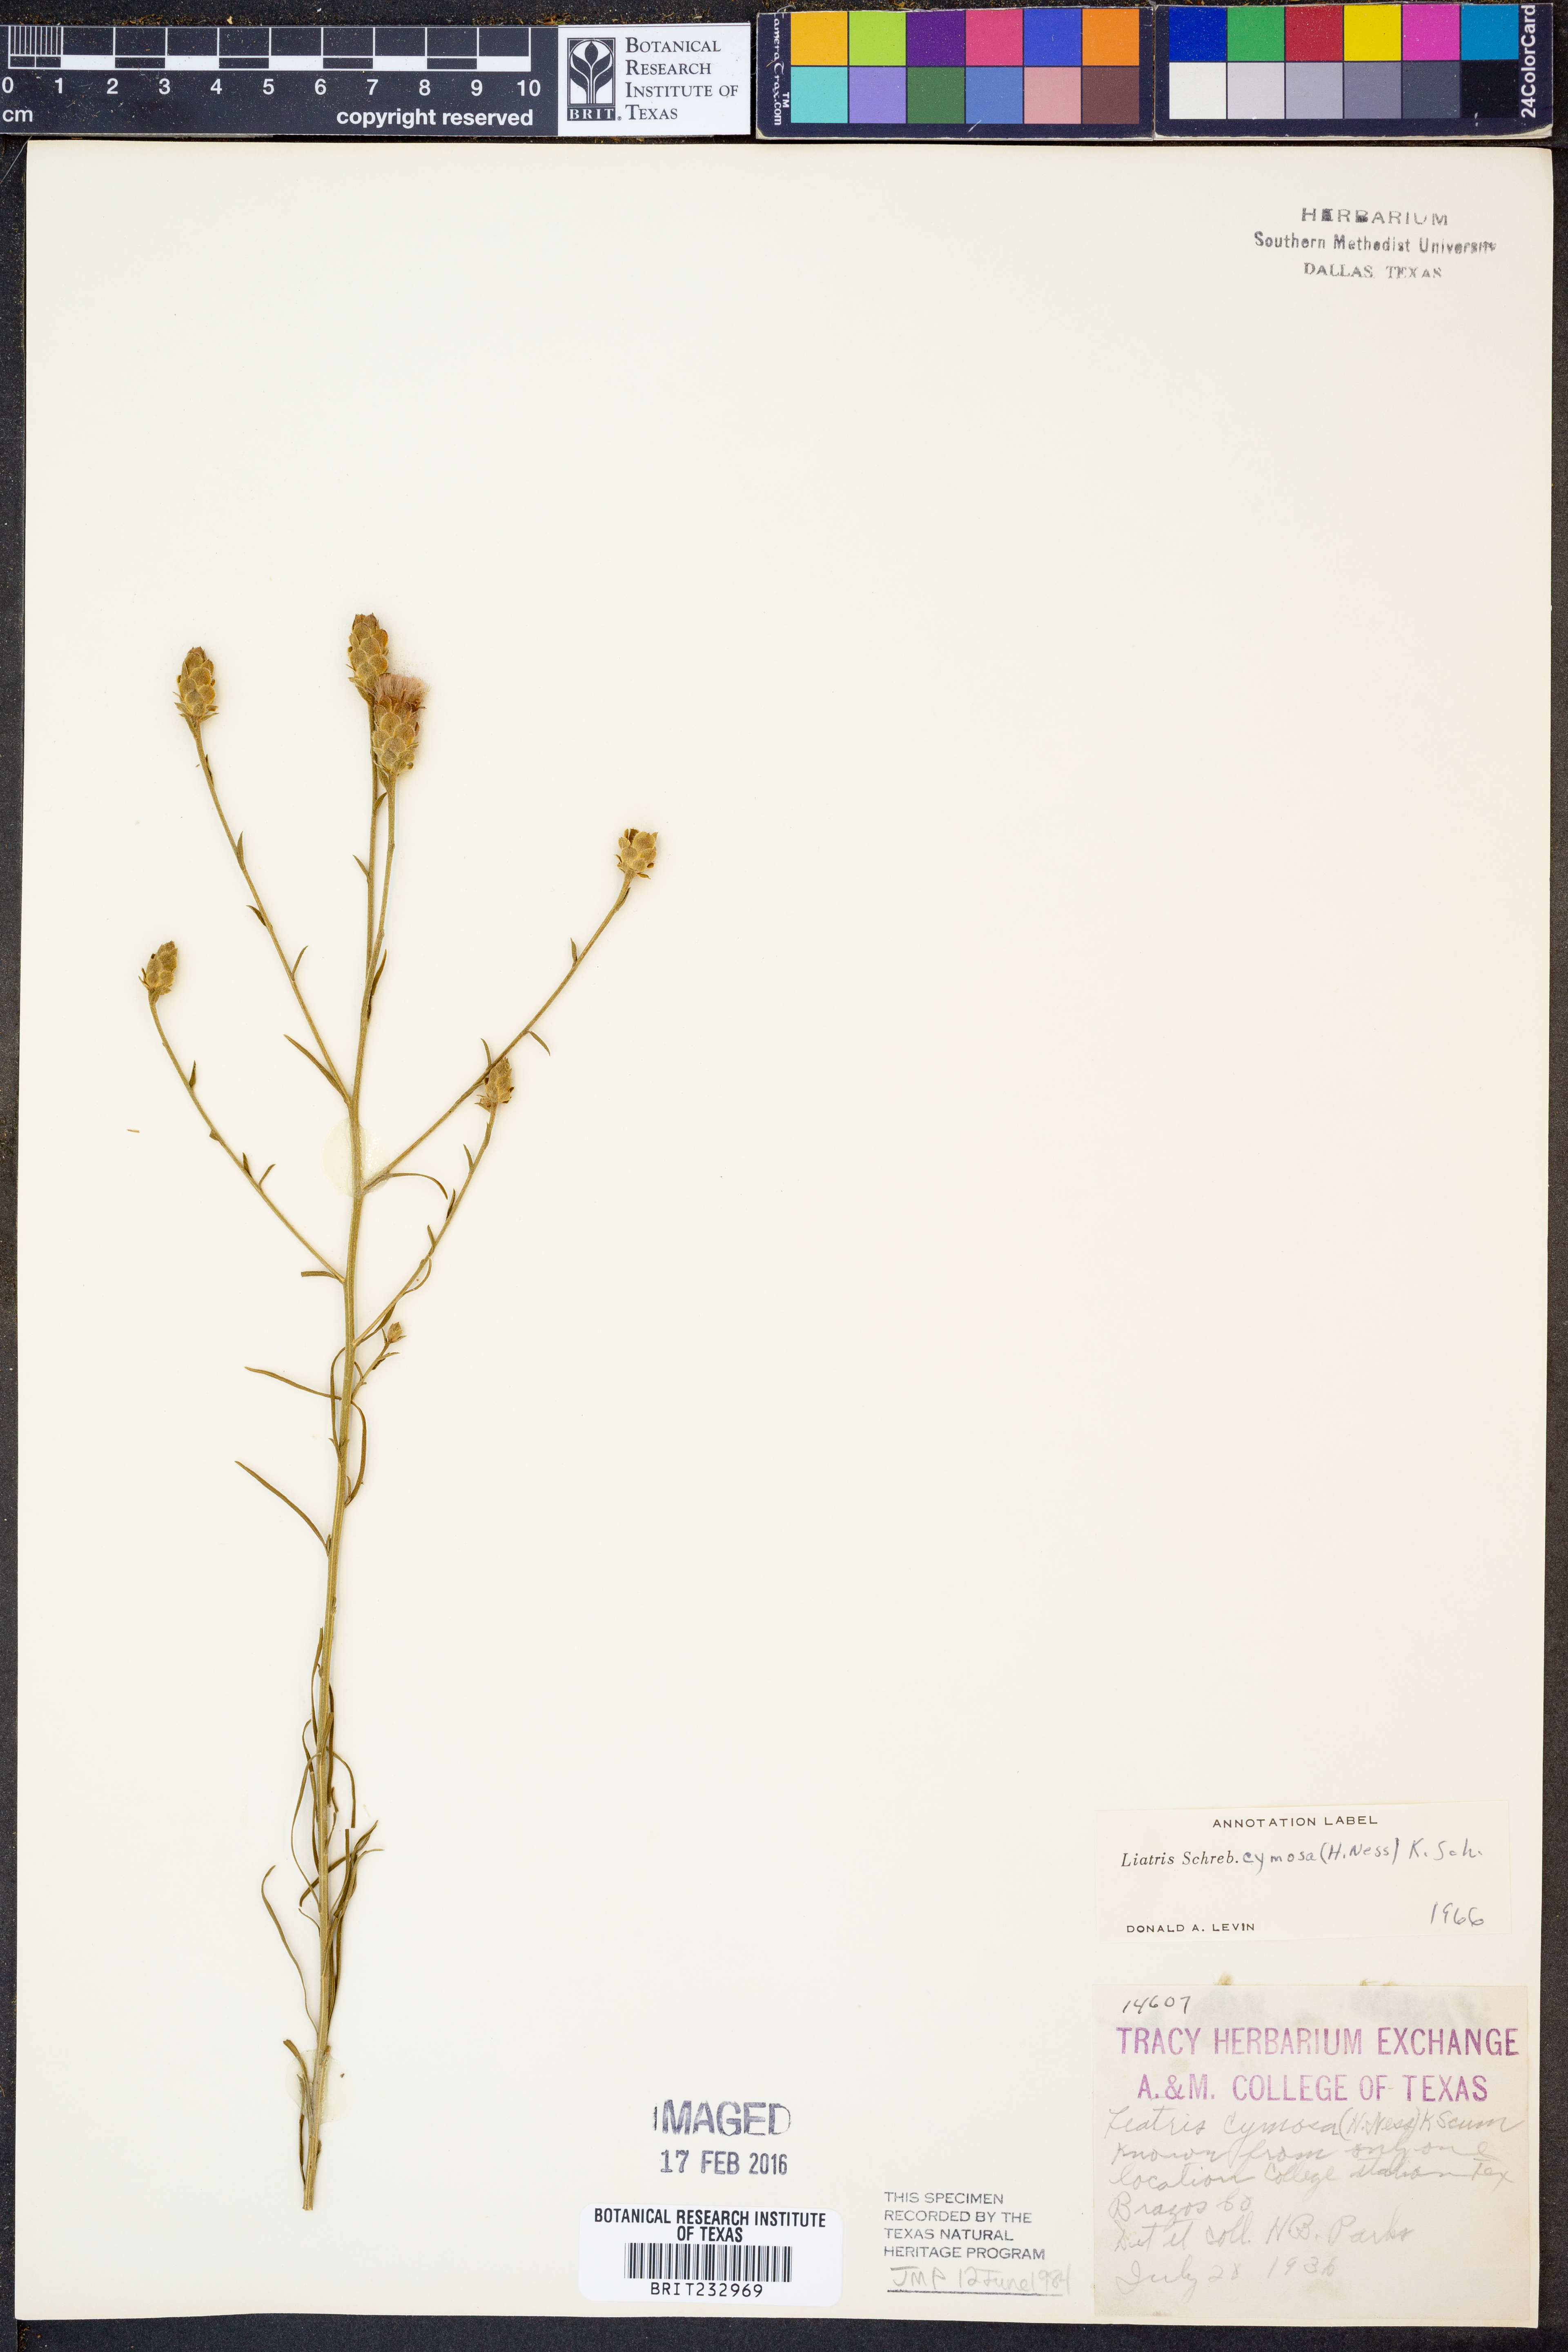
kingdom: Plantae
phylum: Tracheophyta
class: Magnoliopsida
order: Asterales
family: Asteraceae
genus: Liatris
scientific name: Liatris cymosa
